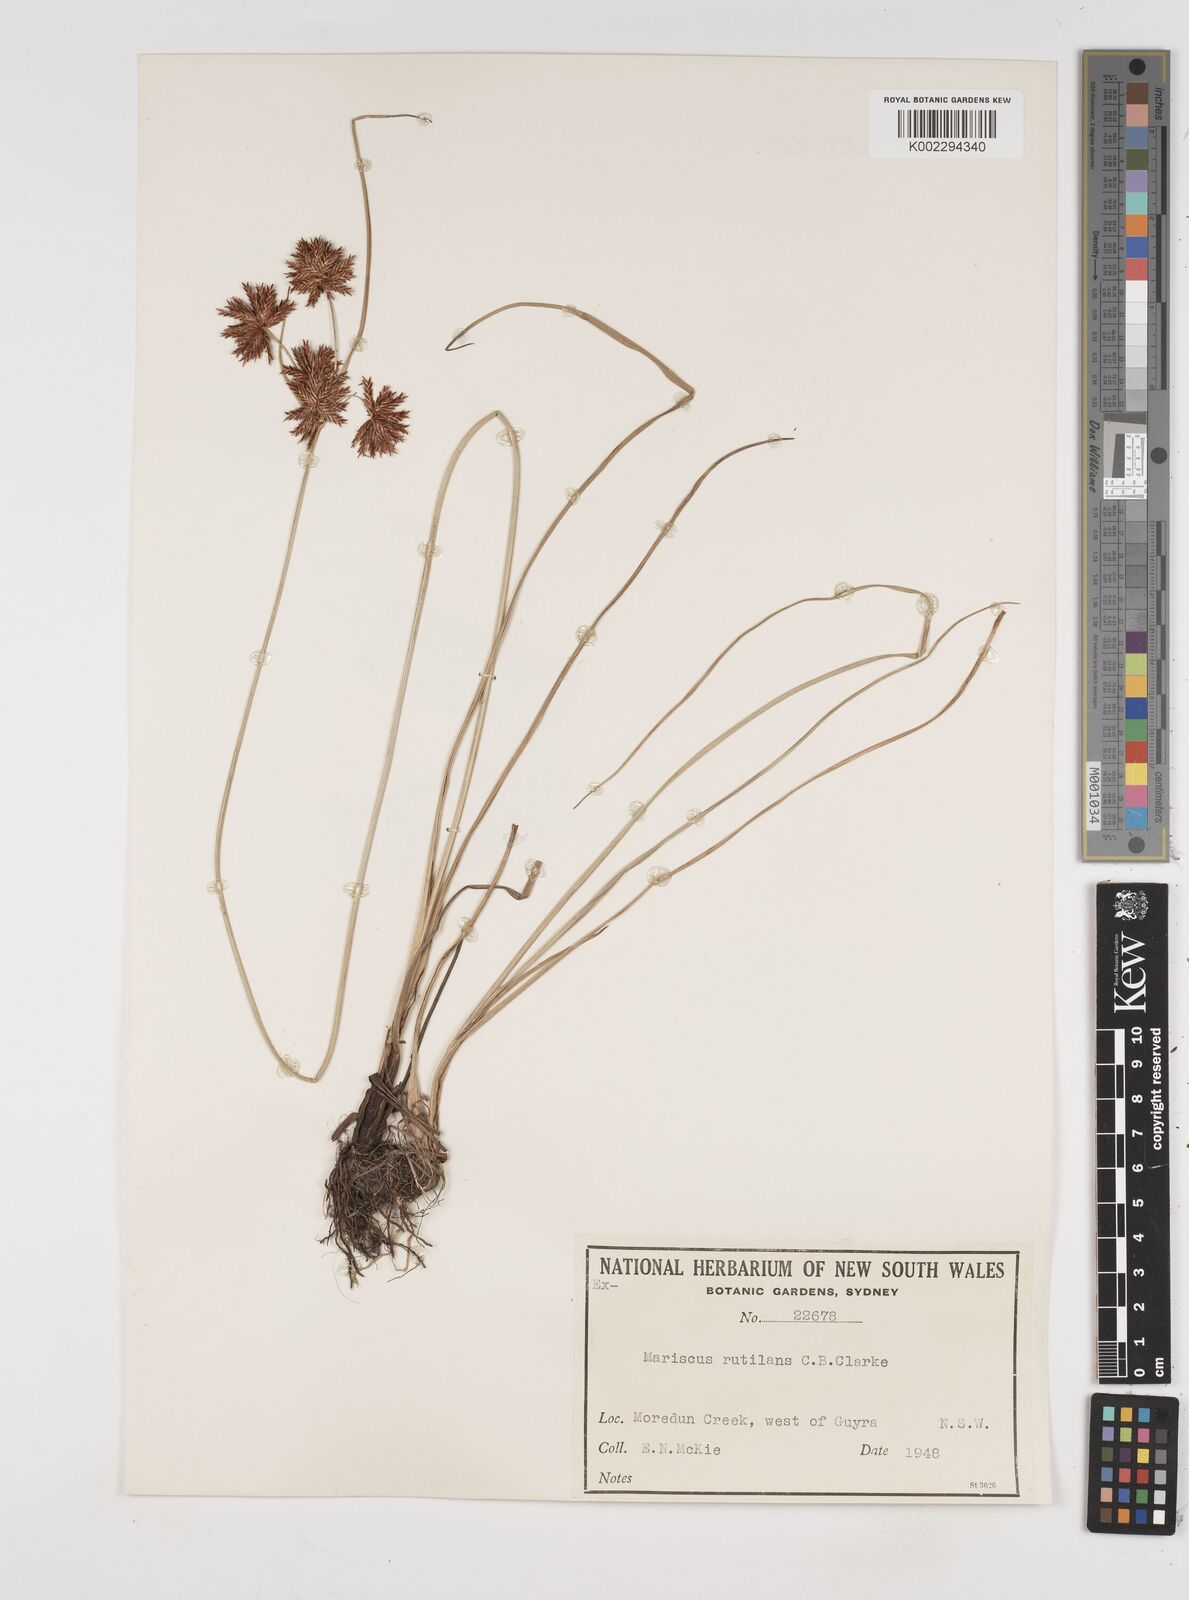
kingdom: Plantae
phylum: Tracheophyta
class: Liliopsida
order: Poales
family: Cyperaceae
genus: Cyperus
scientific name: Cyperus lhotskyanus
